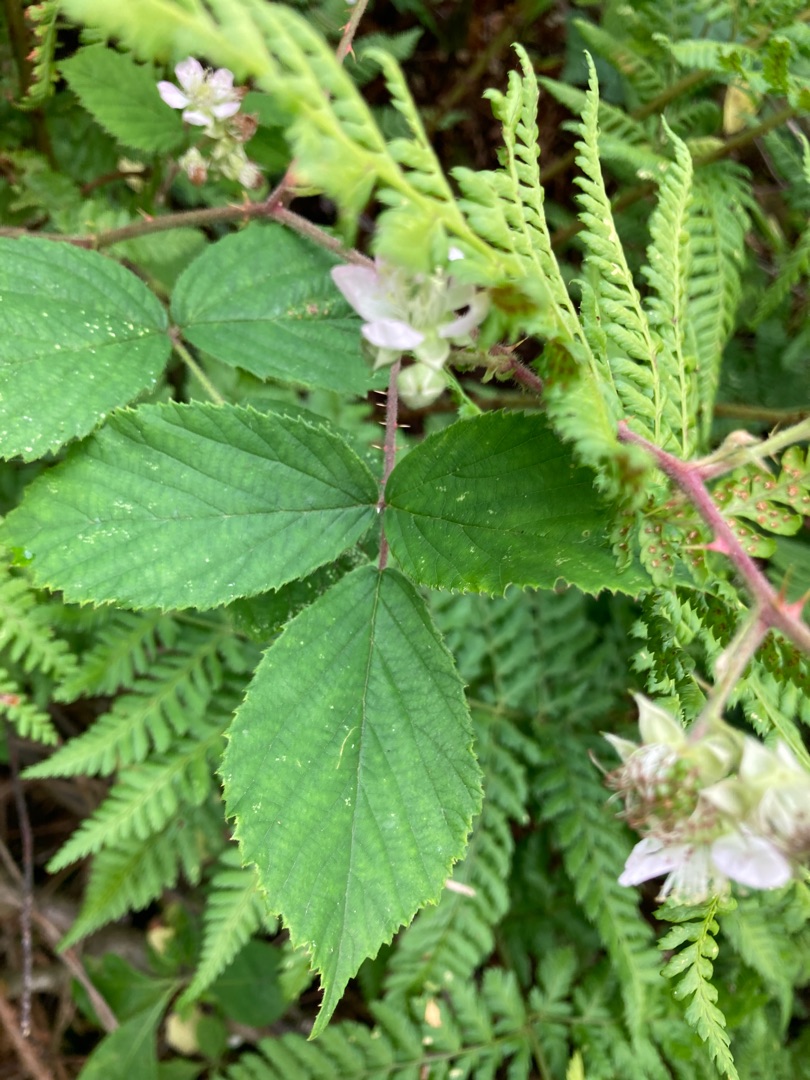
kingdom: Plantae
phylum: Tracheophyta
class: Magnoliopsida
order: Rosales
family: Rosaceae
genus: Rubus
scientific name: Rubus
